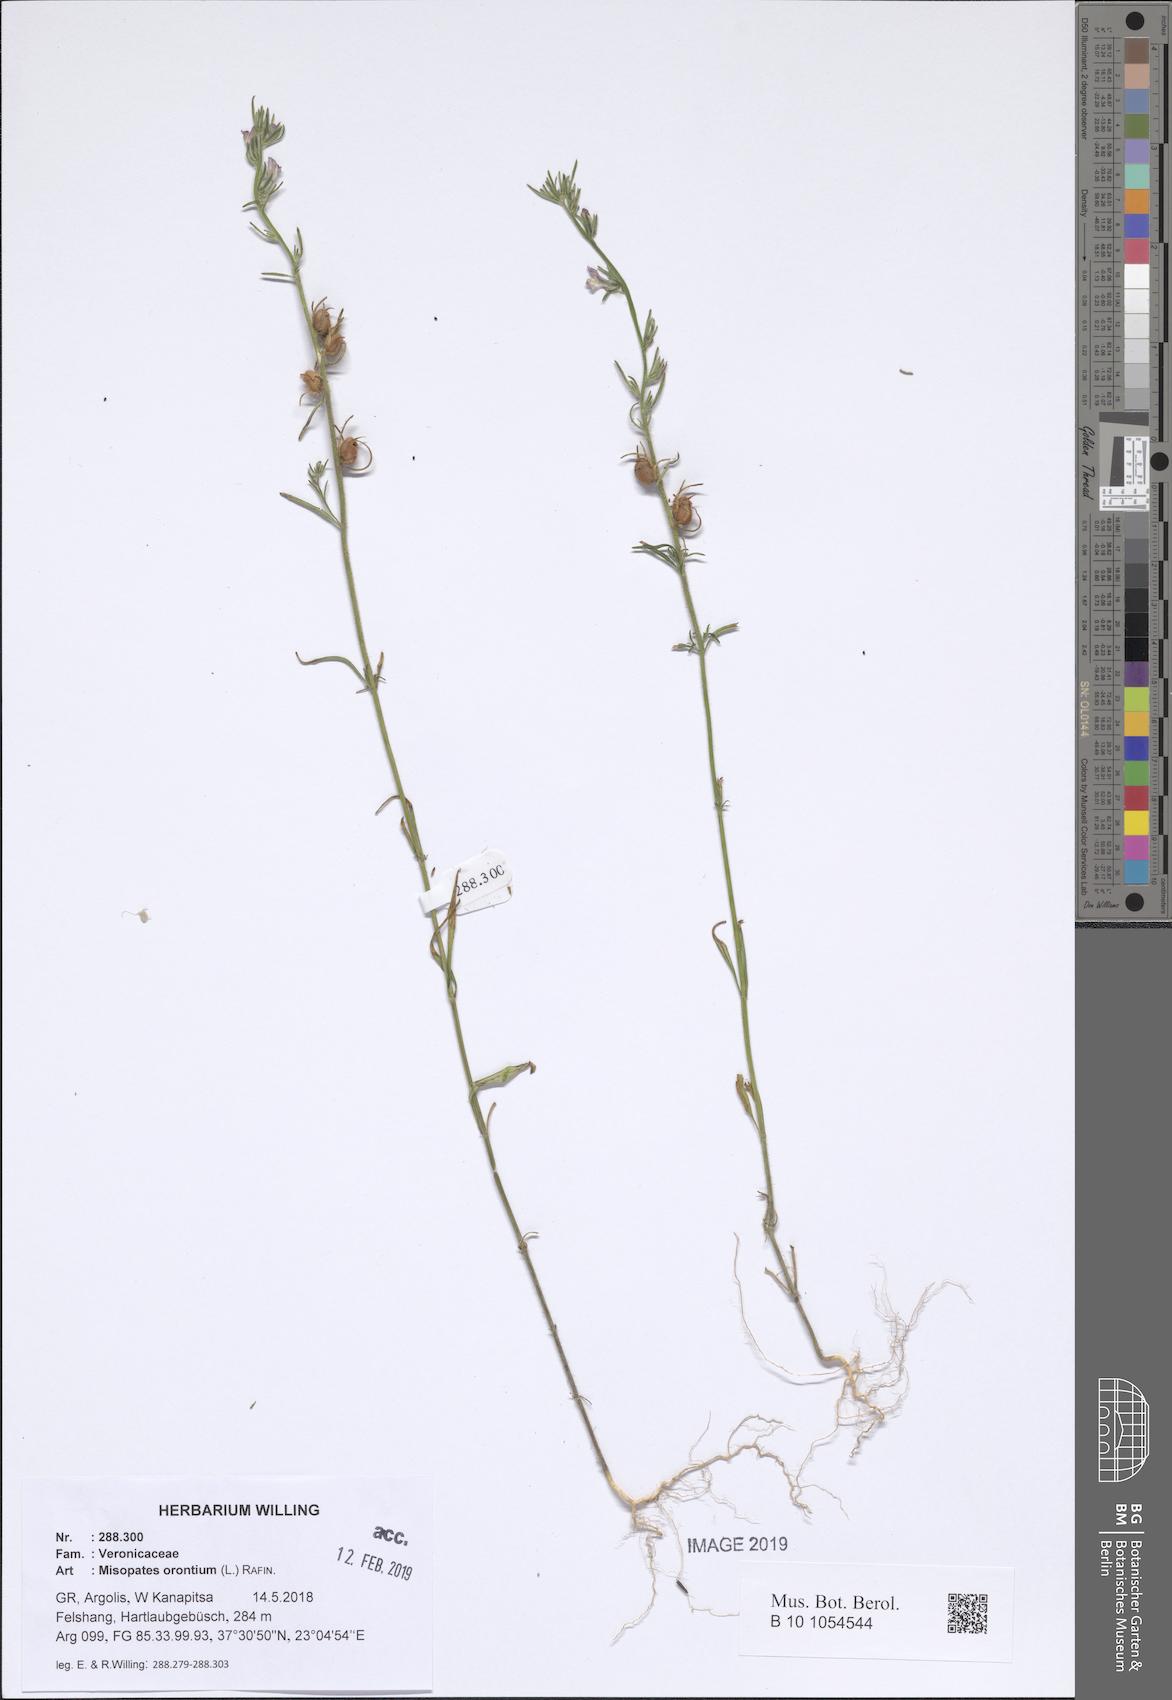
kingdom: Plantae
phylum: Tracheophyta
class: Magnoliopsida
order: Lamiales
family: Plantaginaceae
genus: Misopates
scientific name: Misopates orontium
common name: Weasel's-snout
